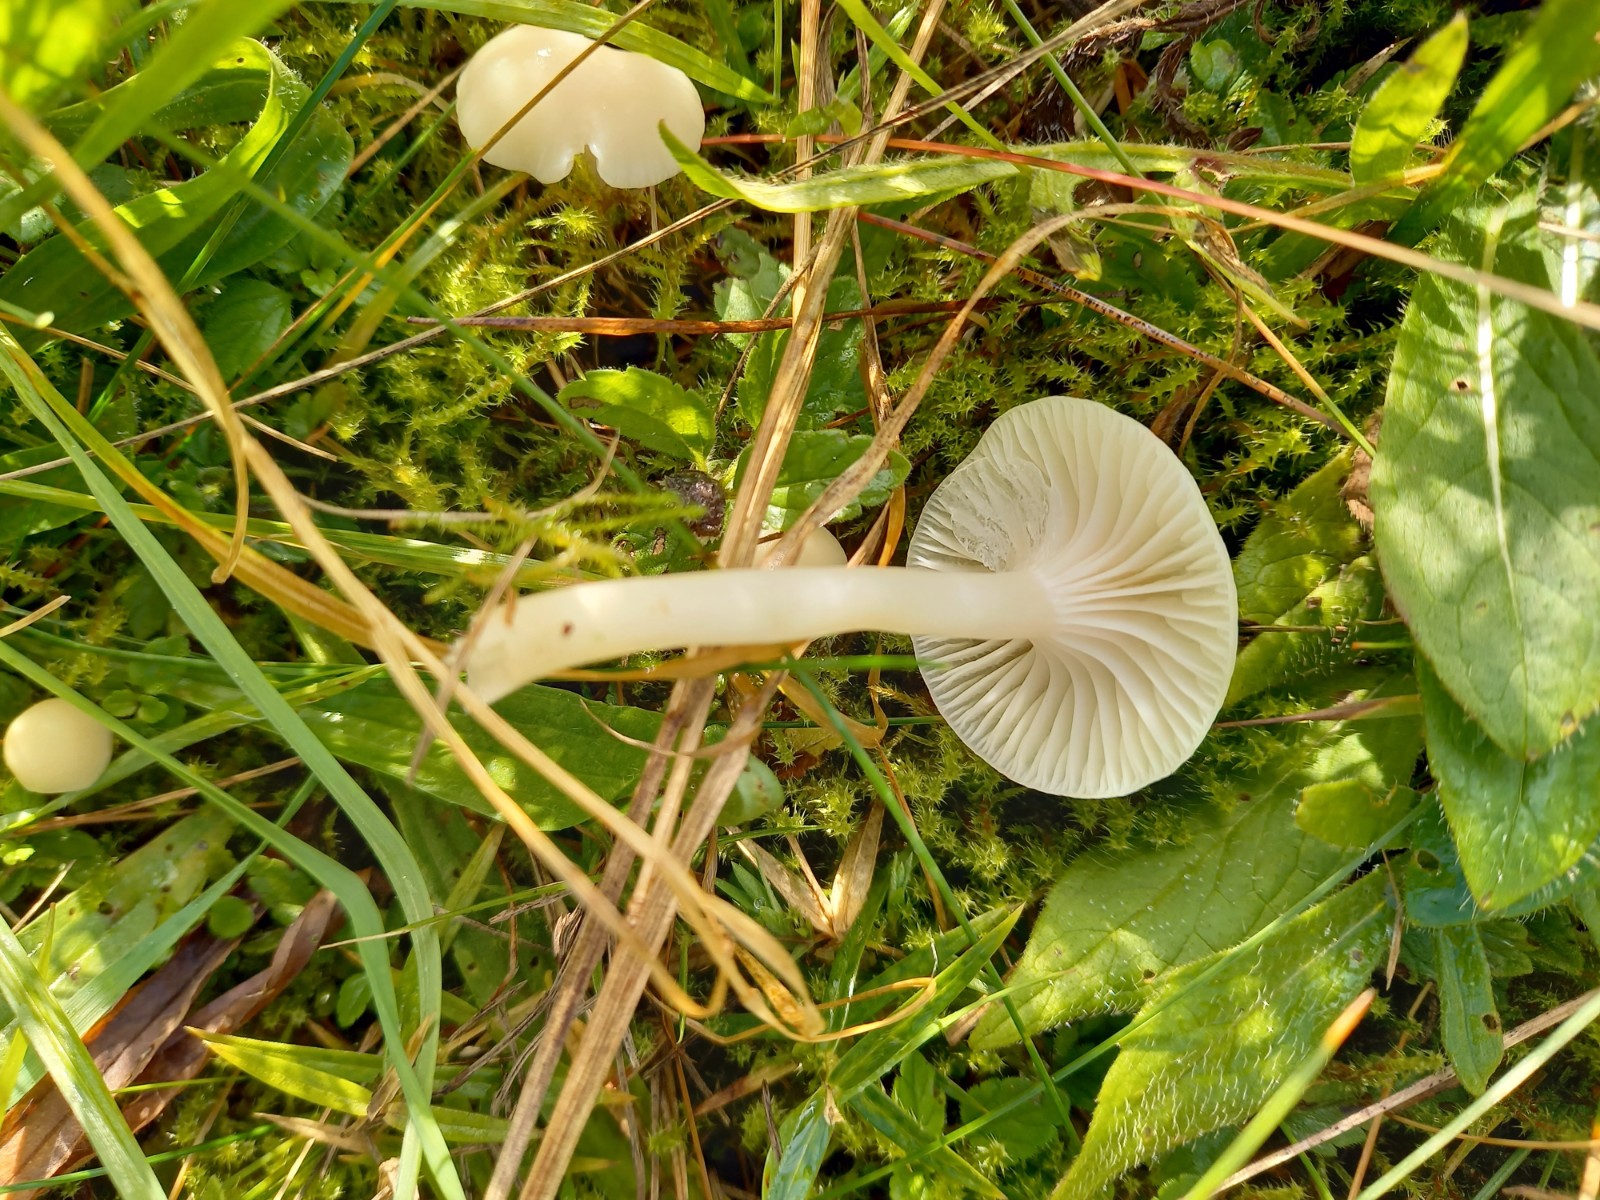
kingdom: Fungi
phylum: Basidiomycota
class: Agaricomycetes
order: Agaricales
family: Hygrophoraceae
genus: Cuphophyllus
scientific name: Cuphophyllus virgineus
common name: snehvid vokshat
